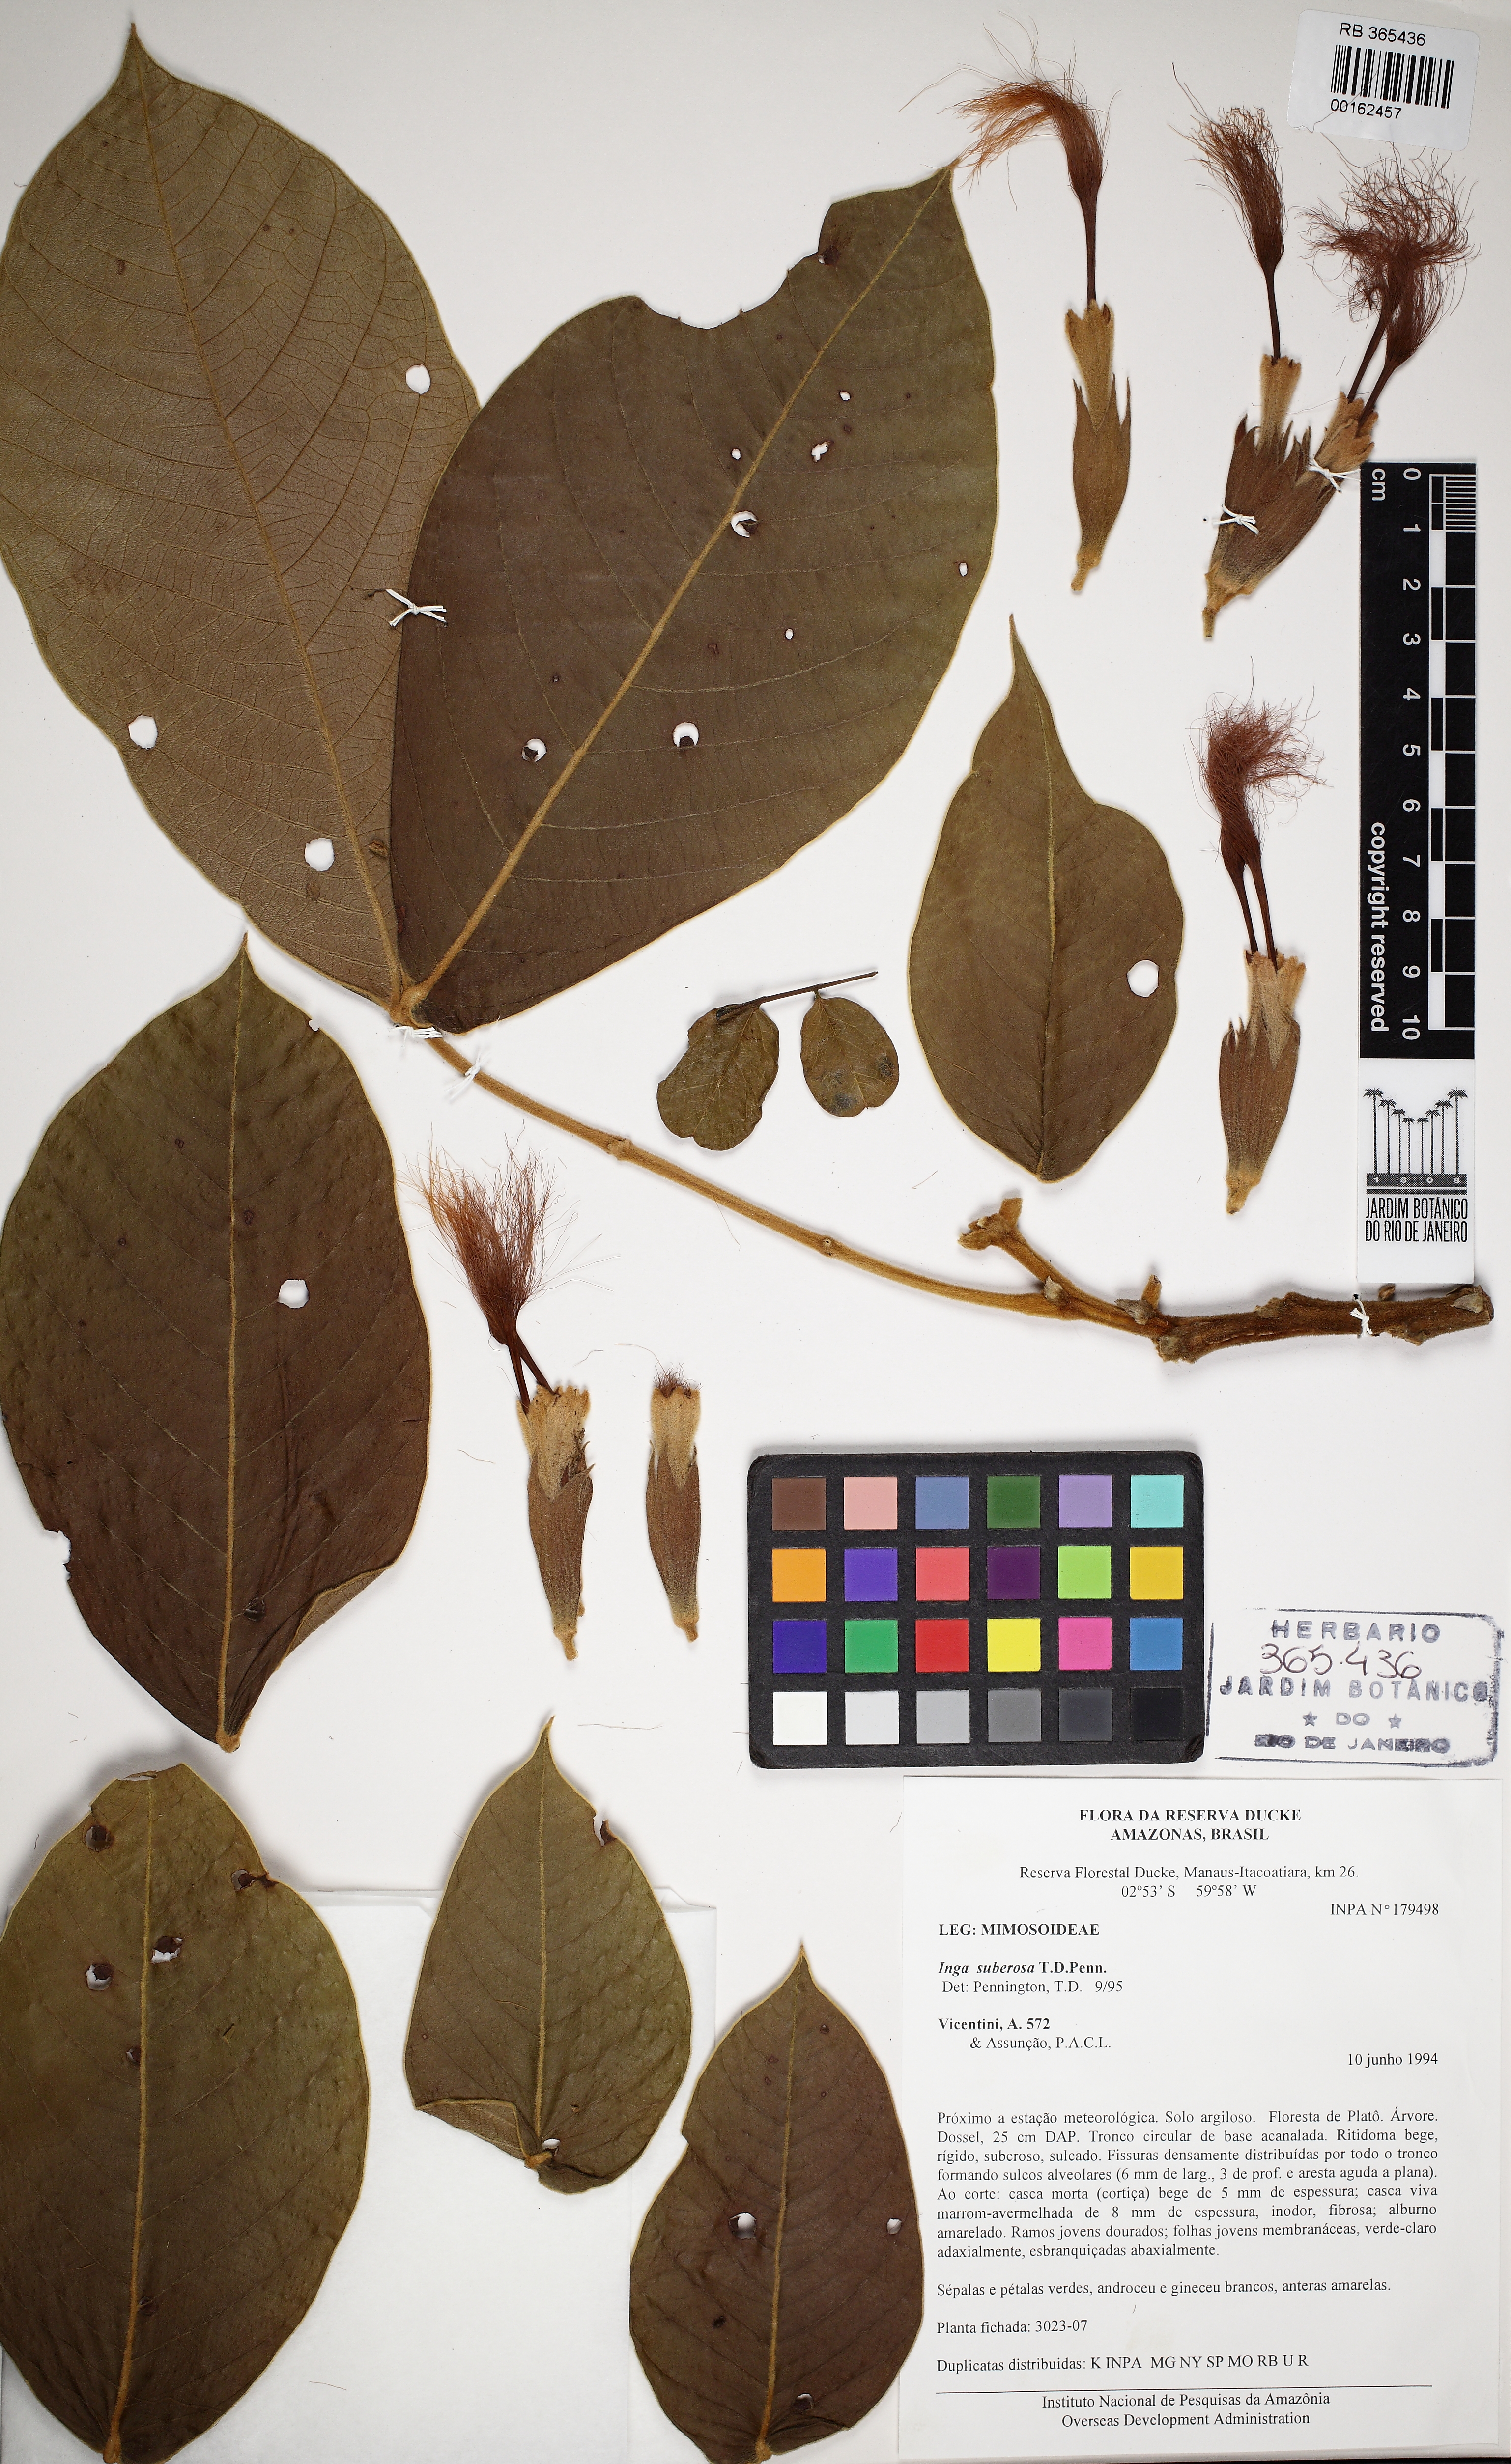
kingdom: Plantae
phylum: Tracheophyta
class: Magnoliopsida
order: Fabales
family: Fabaceae
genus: Inga
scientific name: Inga suberosa
